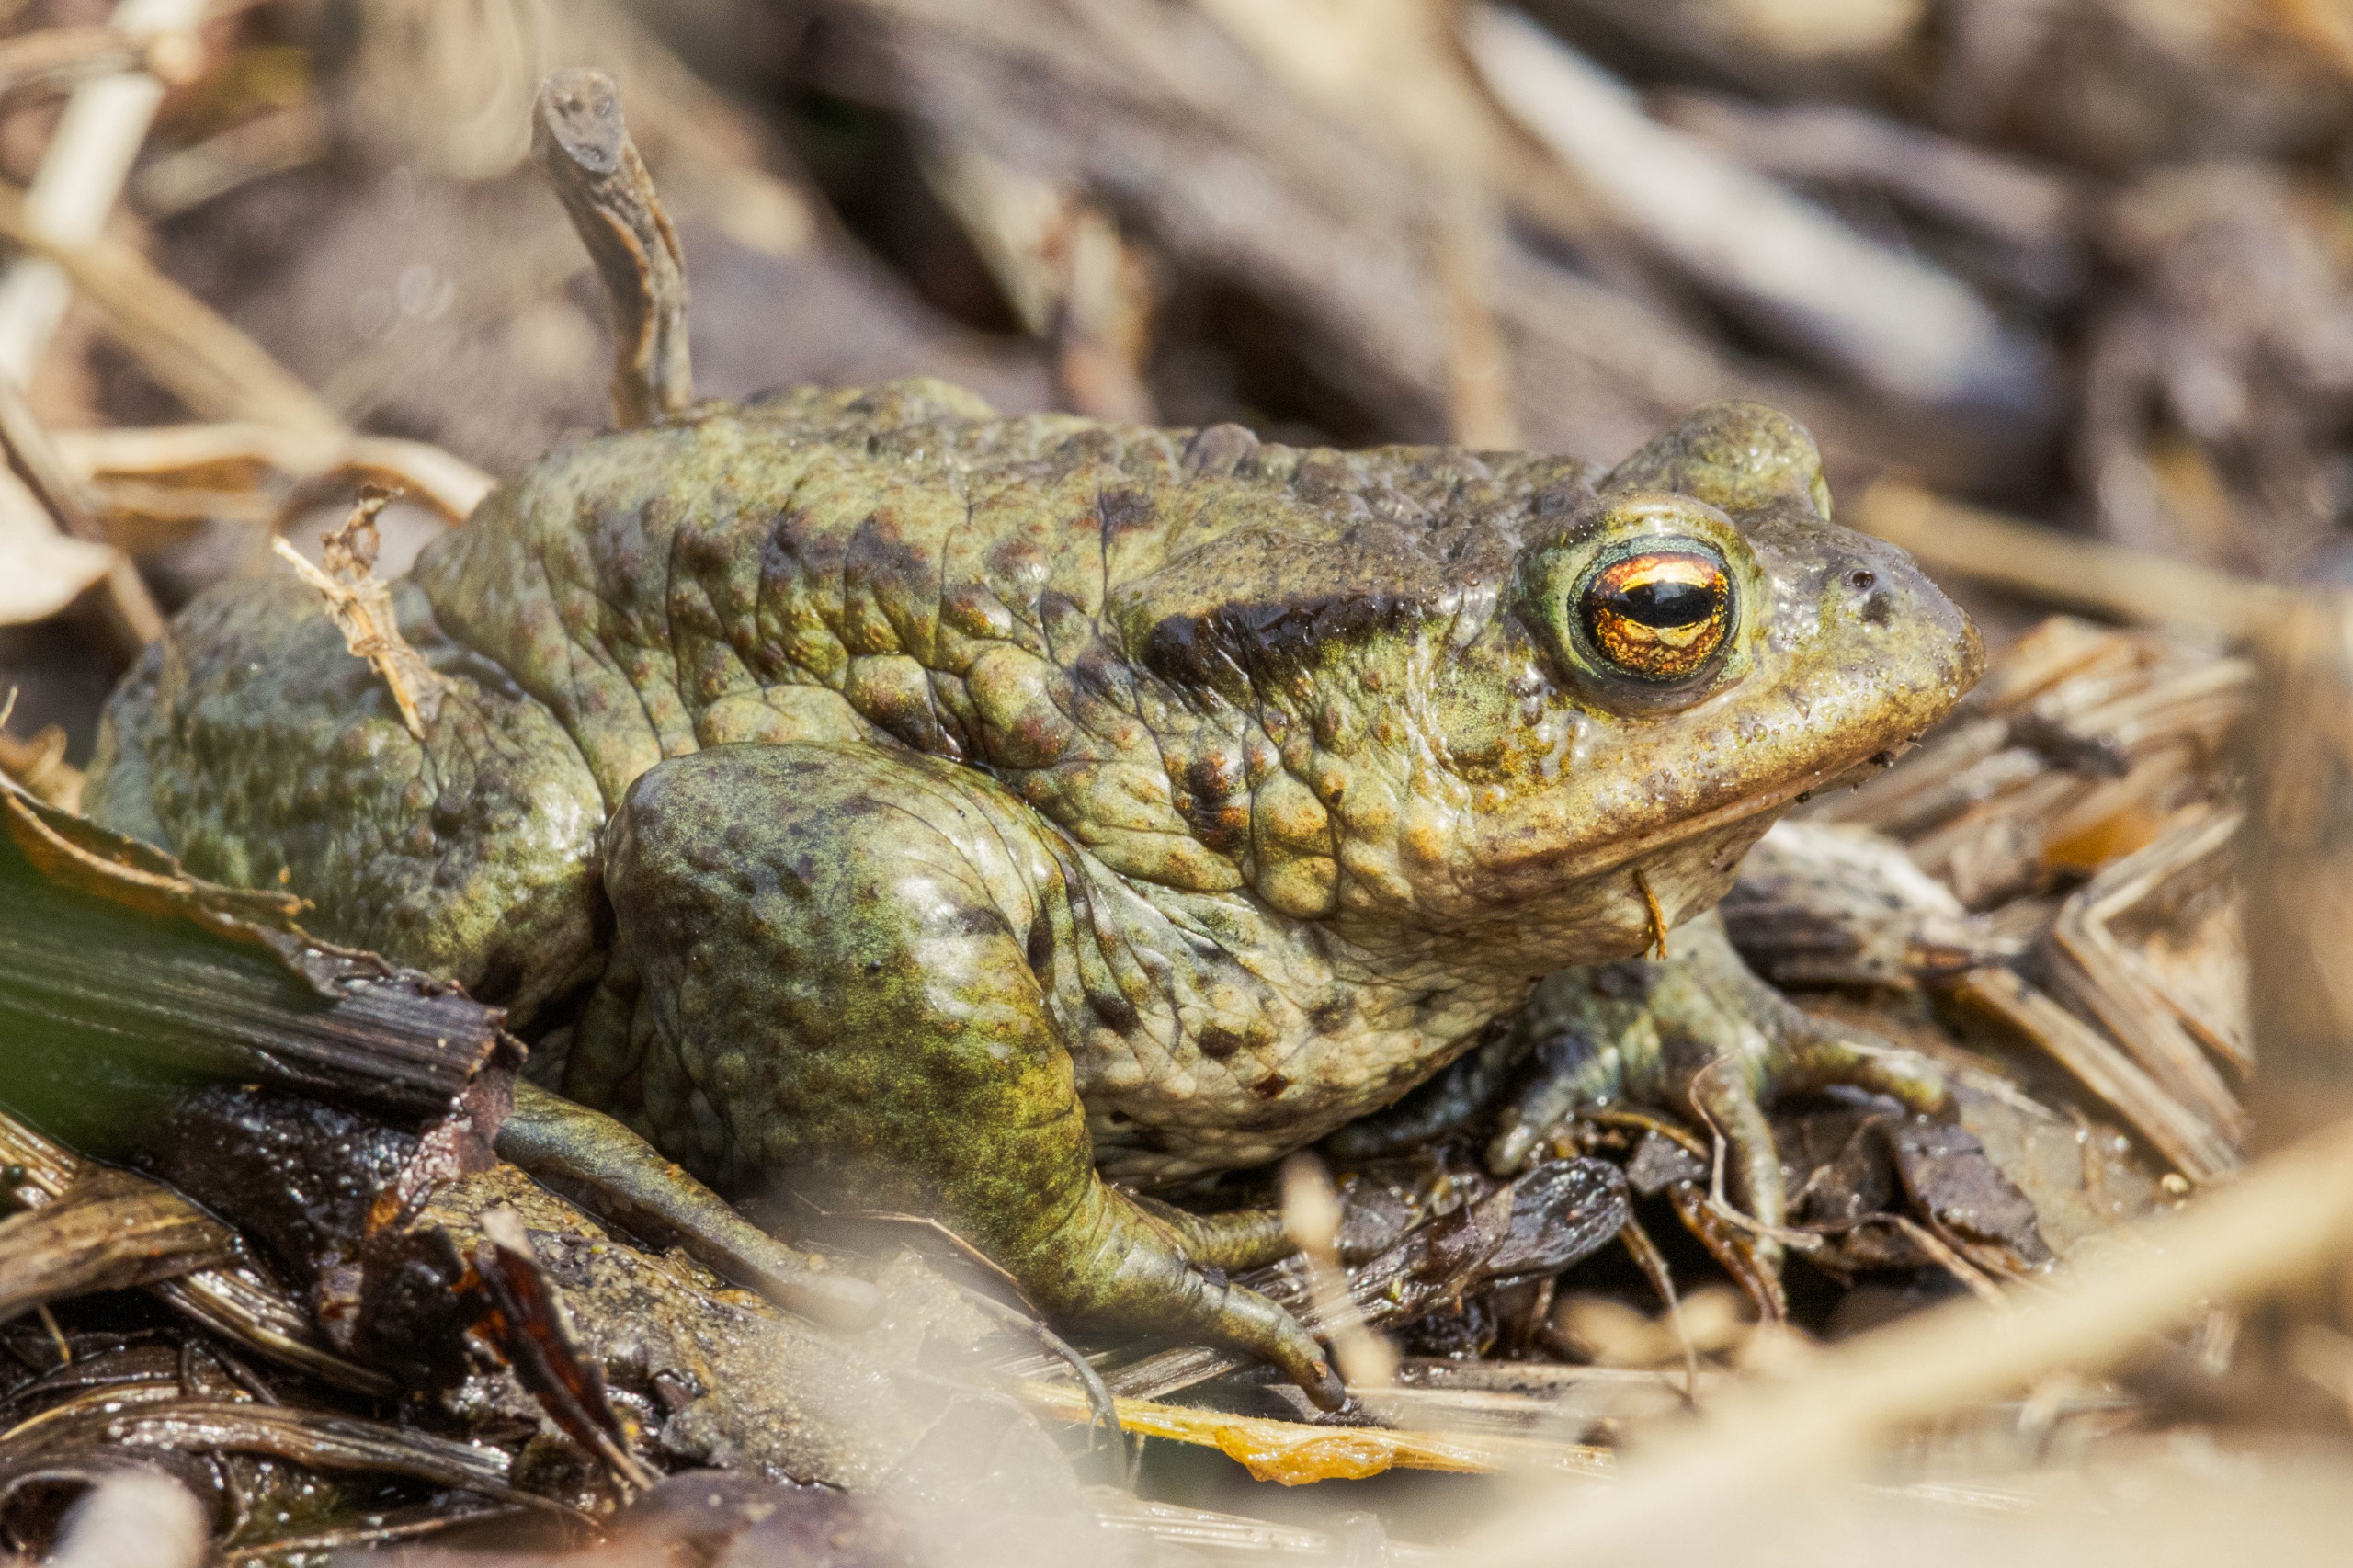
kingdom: Animalia
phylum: Chordata
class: Amphibia
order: Anura
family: Bufonidae
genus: Bufo
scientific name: Bufo bufo
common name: Skrubtudse
